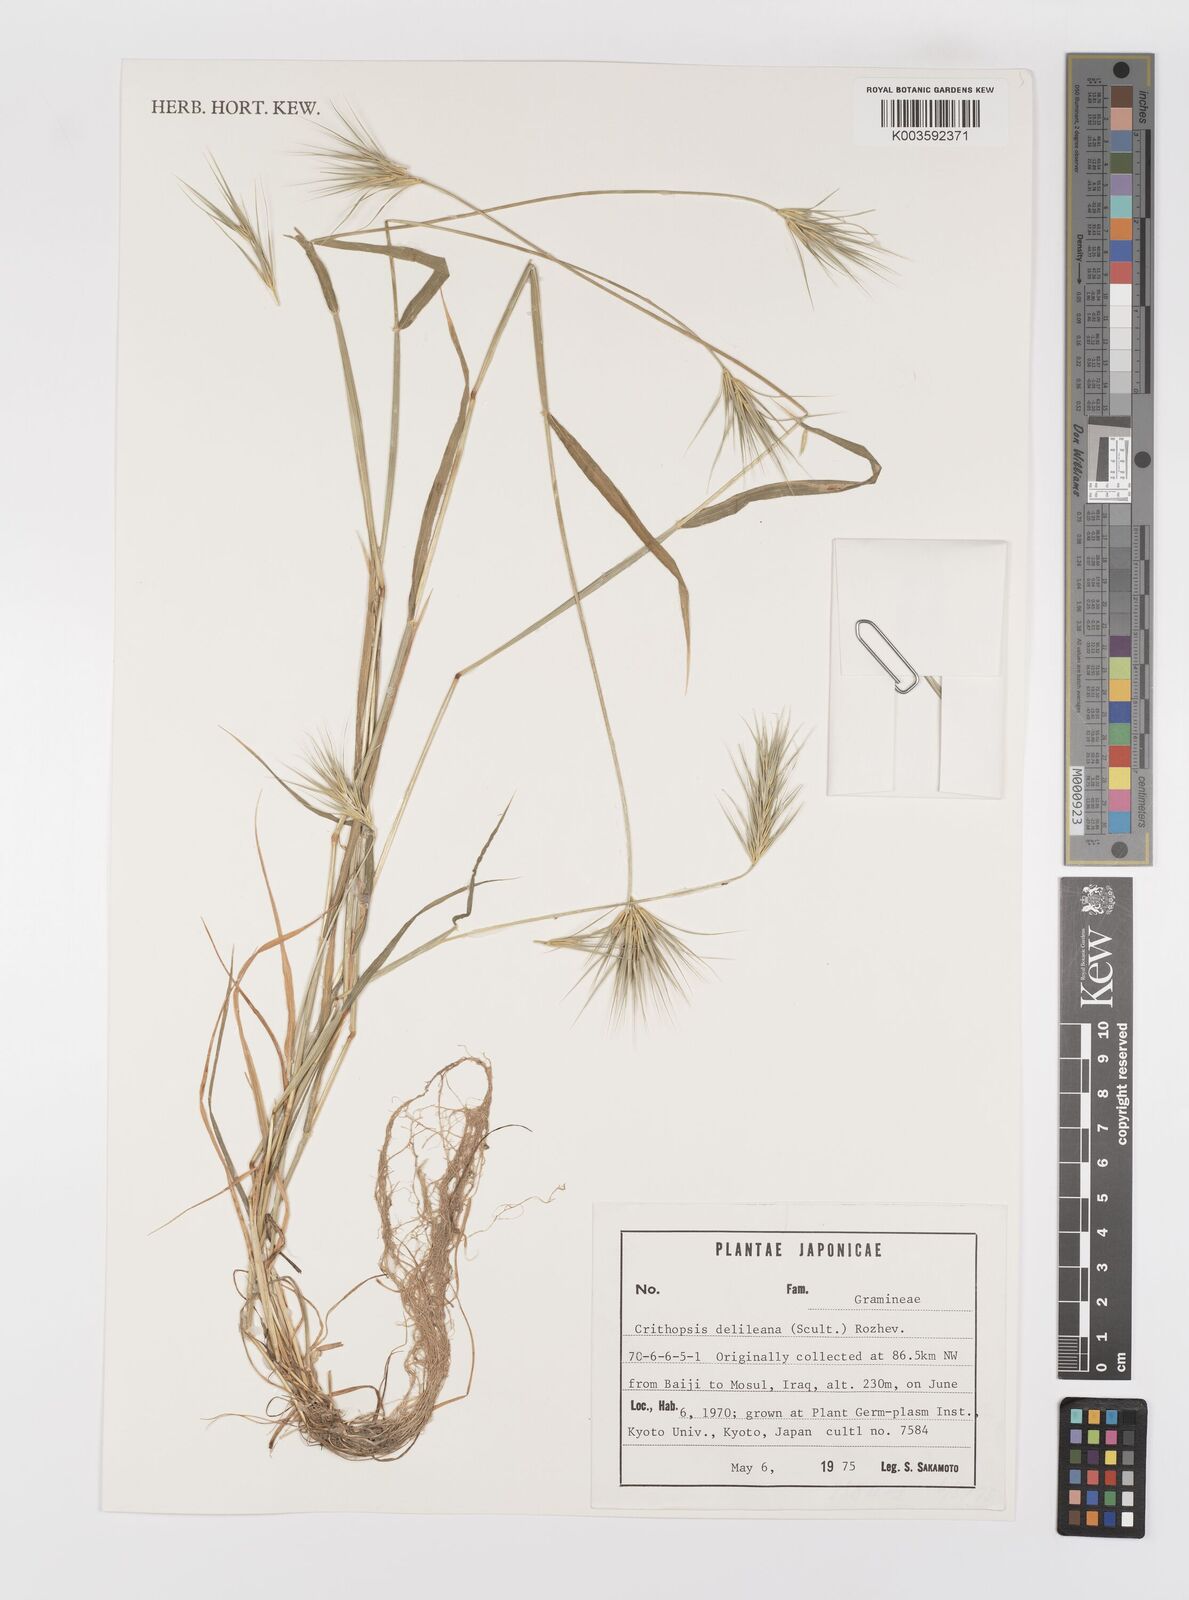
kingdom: Plantae
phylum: Tracheophyta
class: Liliopsida
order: Poales
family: Poaceae
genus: Crithopsis
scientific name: Crithopsis delileana
